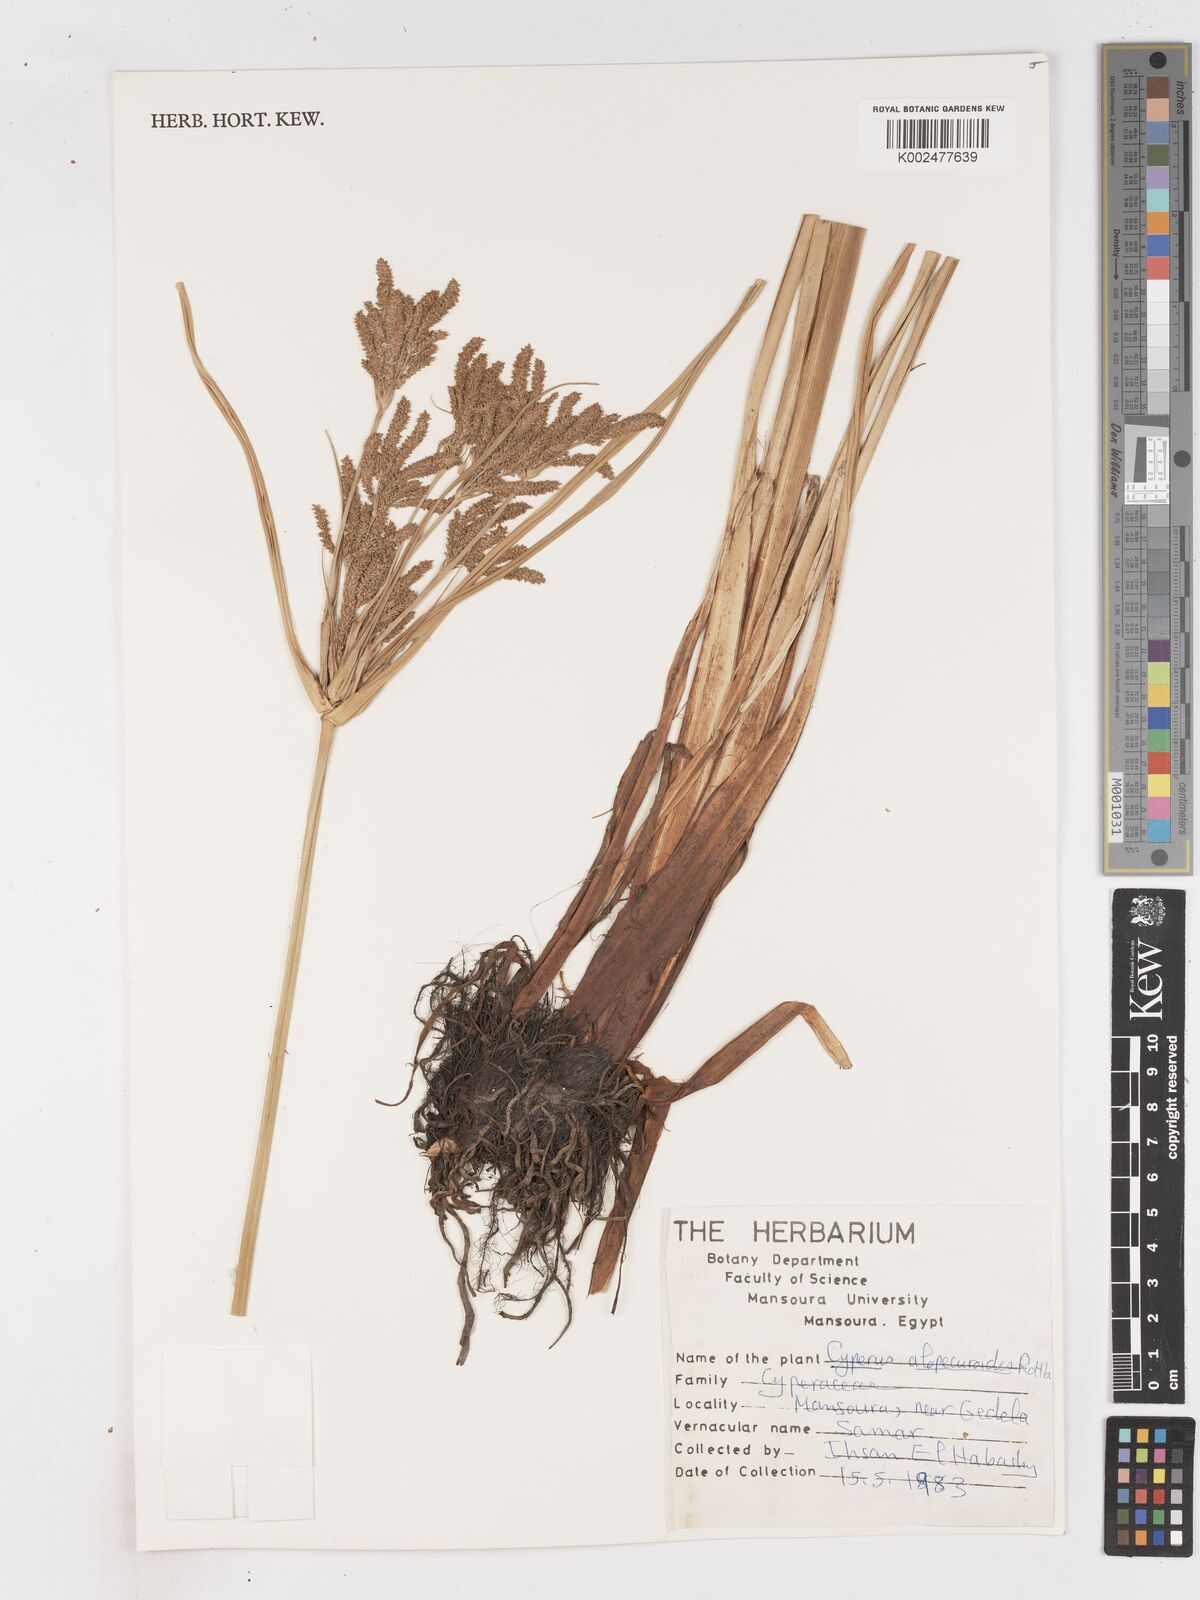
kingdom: Plantae
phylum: Tracheophyta
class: Liliopsida
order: Poales
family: Cyperaceae
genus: Cyperus
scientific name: Cyperus alopecuroides
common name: Foxtail flatsedge
